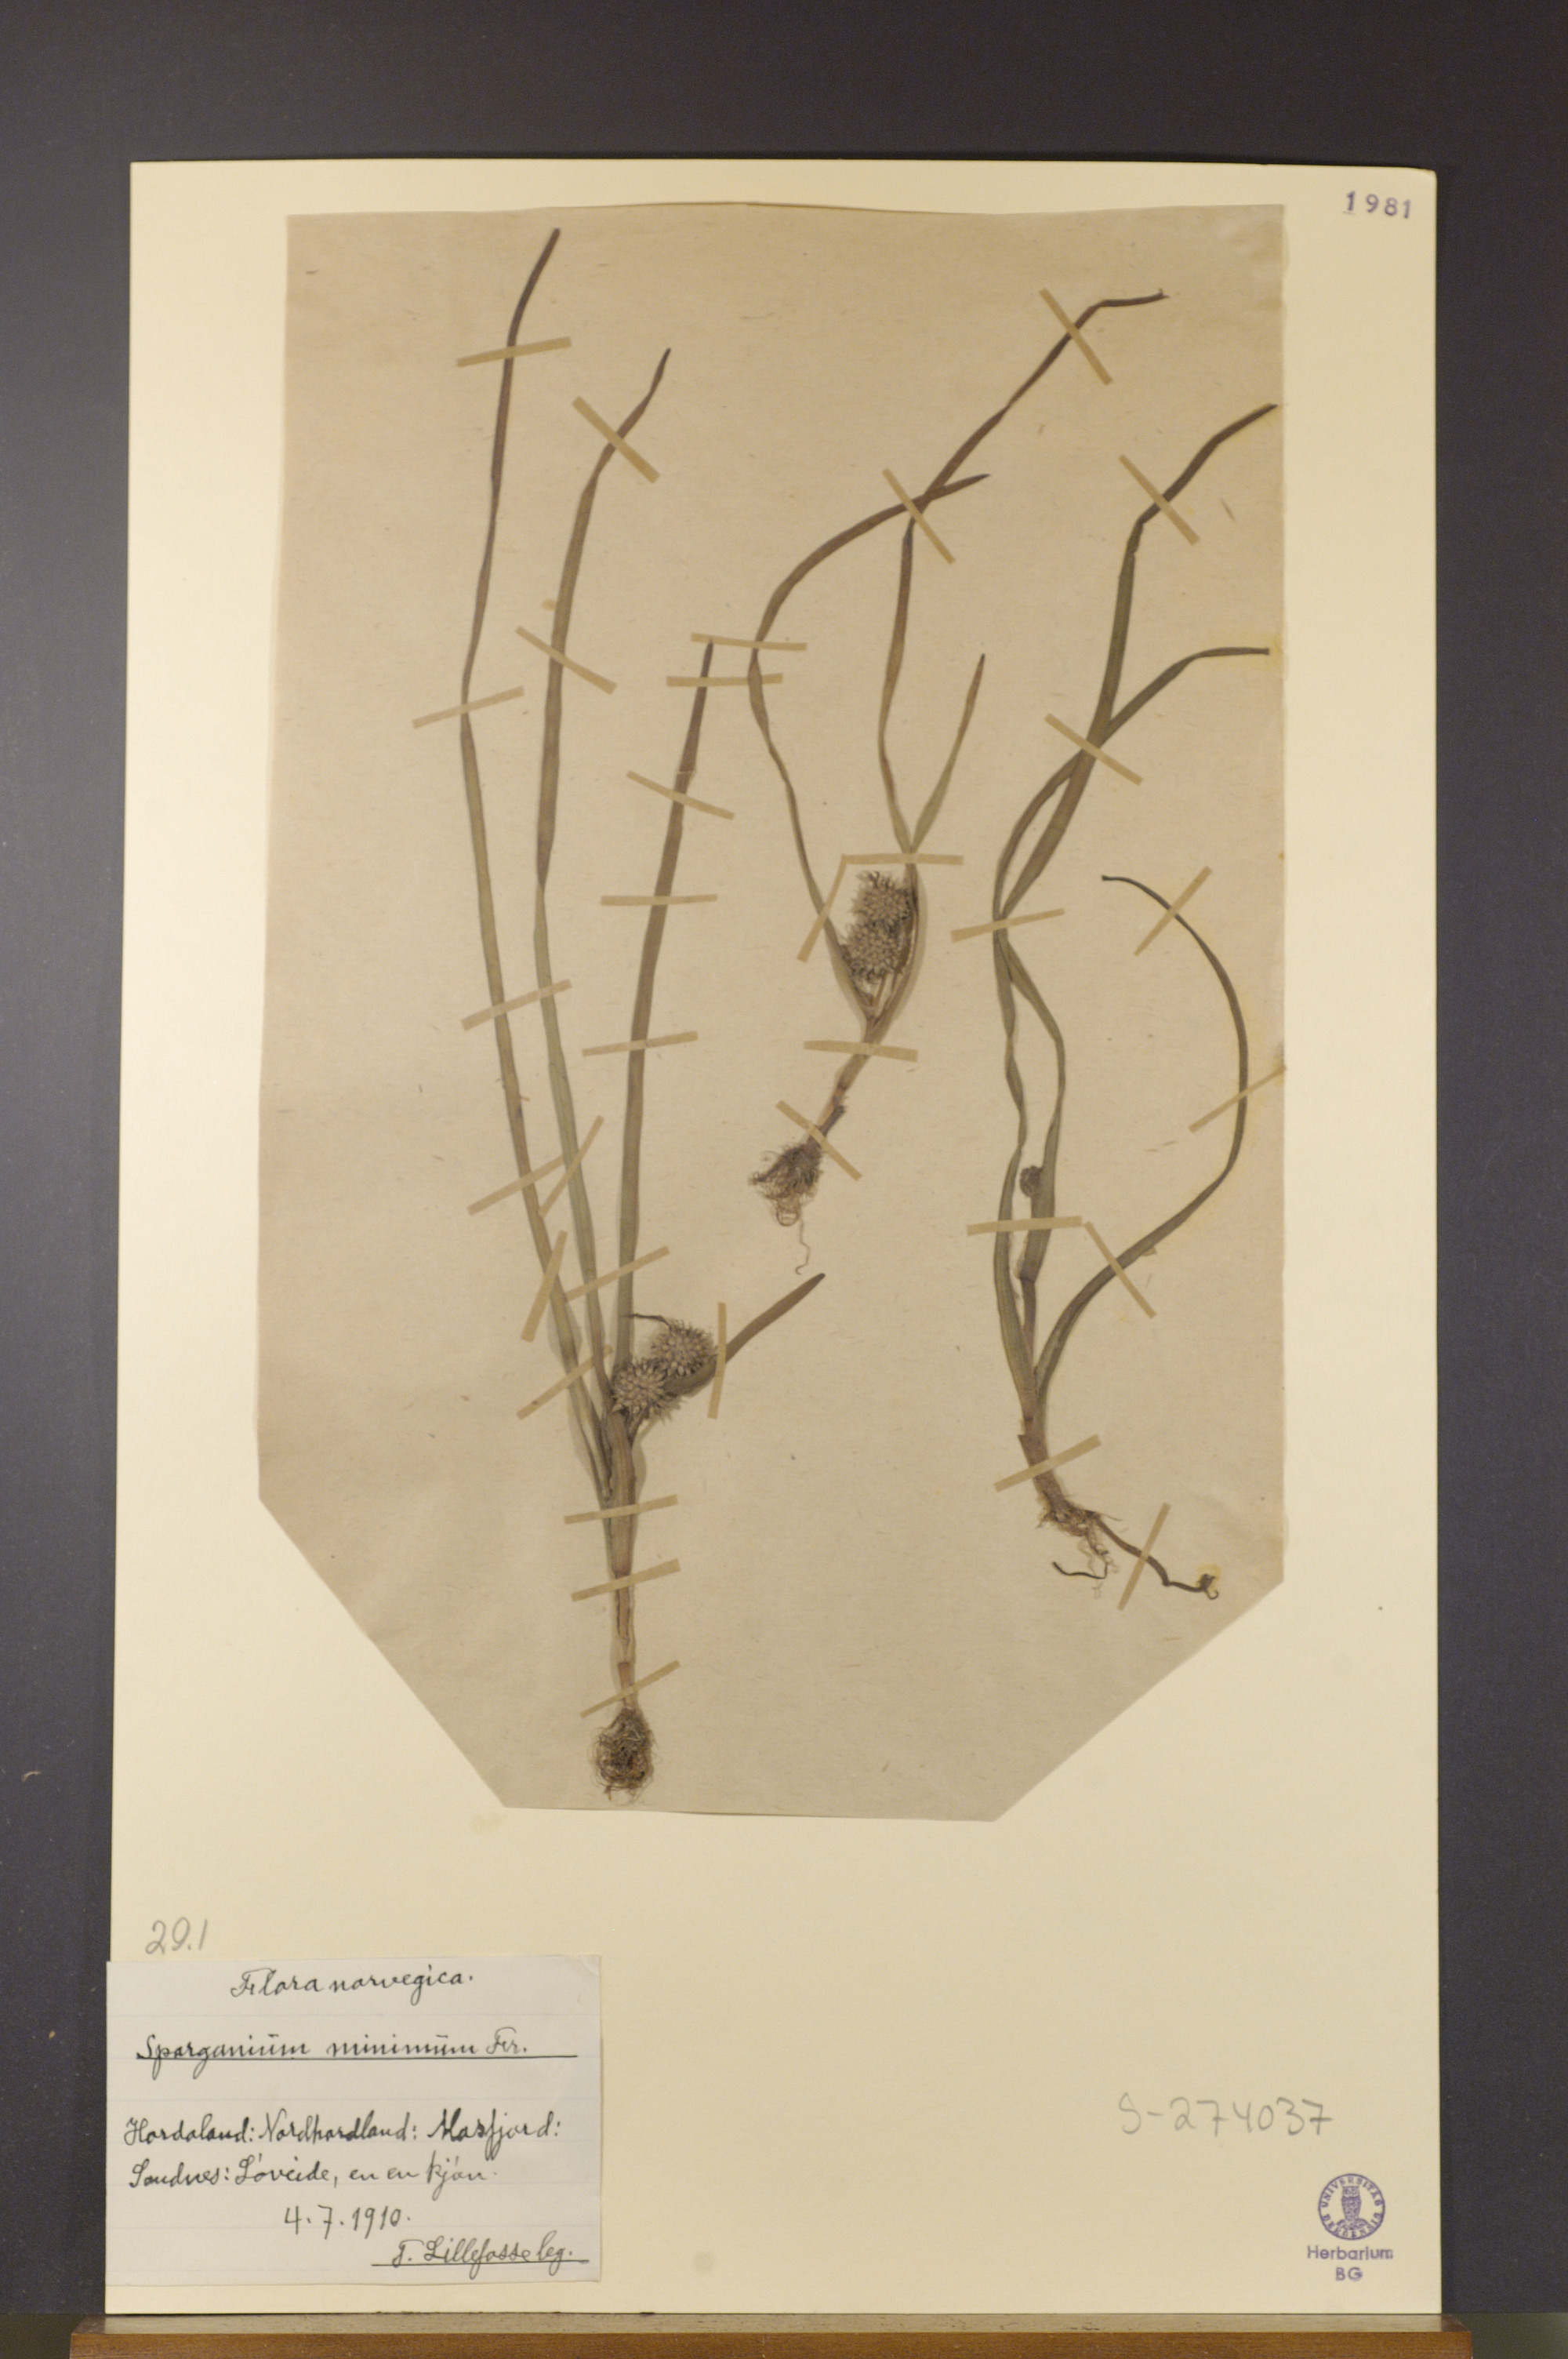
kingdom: Plantae
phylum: Tracheophyta
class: Liliopsida
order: Poales
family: Typhaceae
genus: Sparganium
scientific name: Sparganium natans
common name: Least bur-reed
